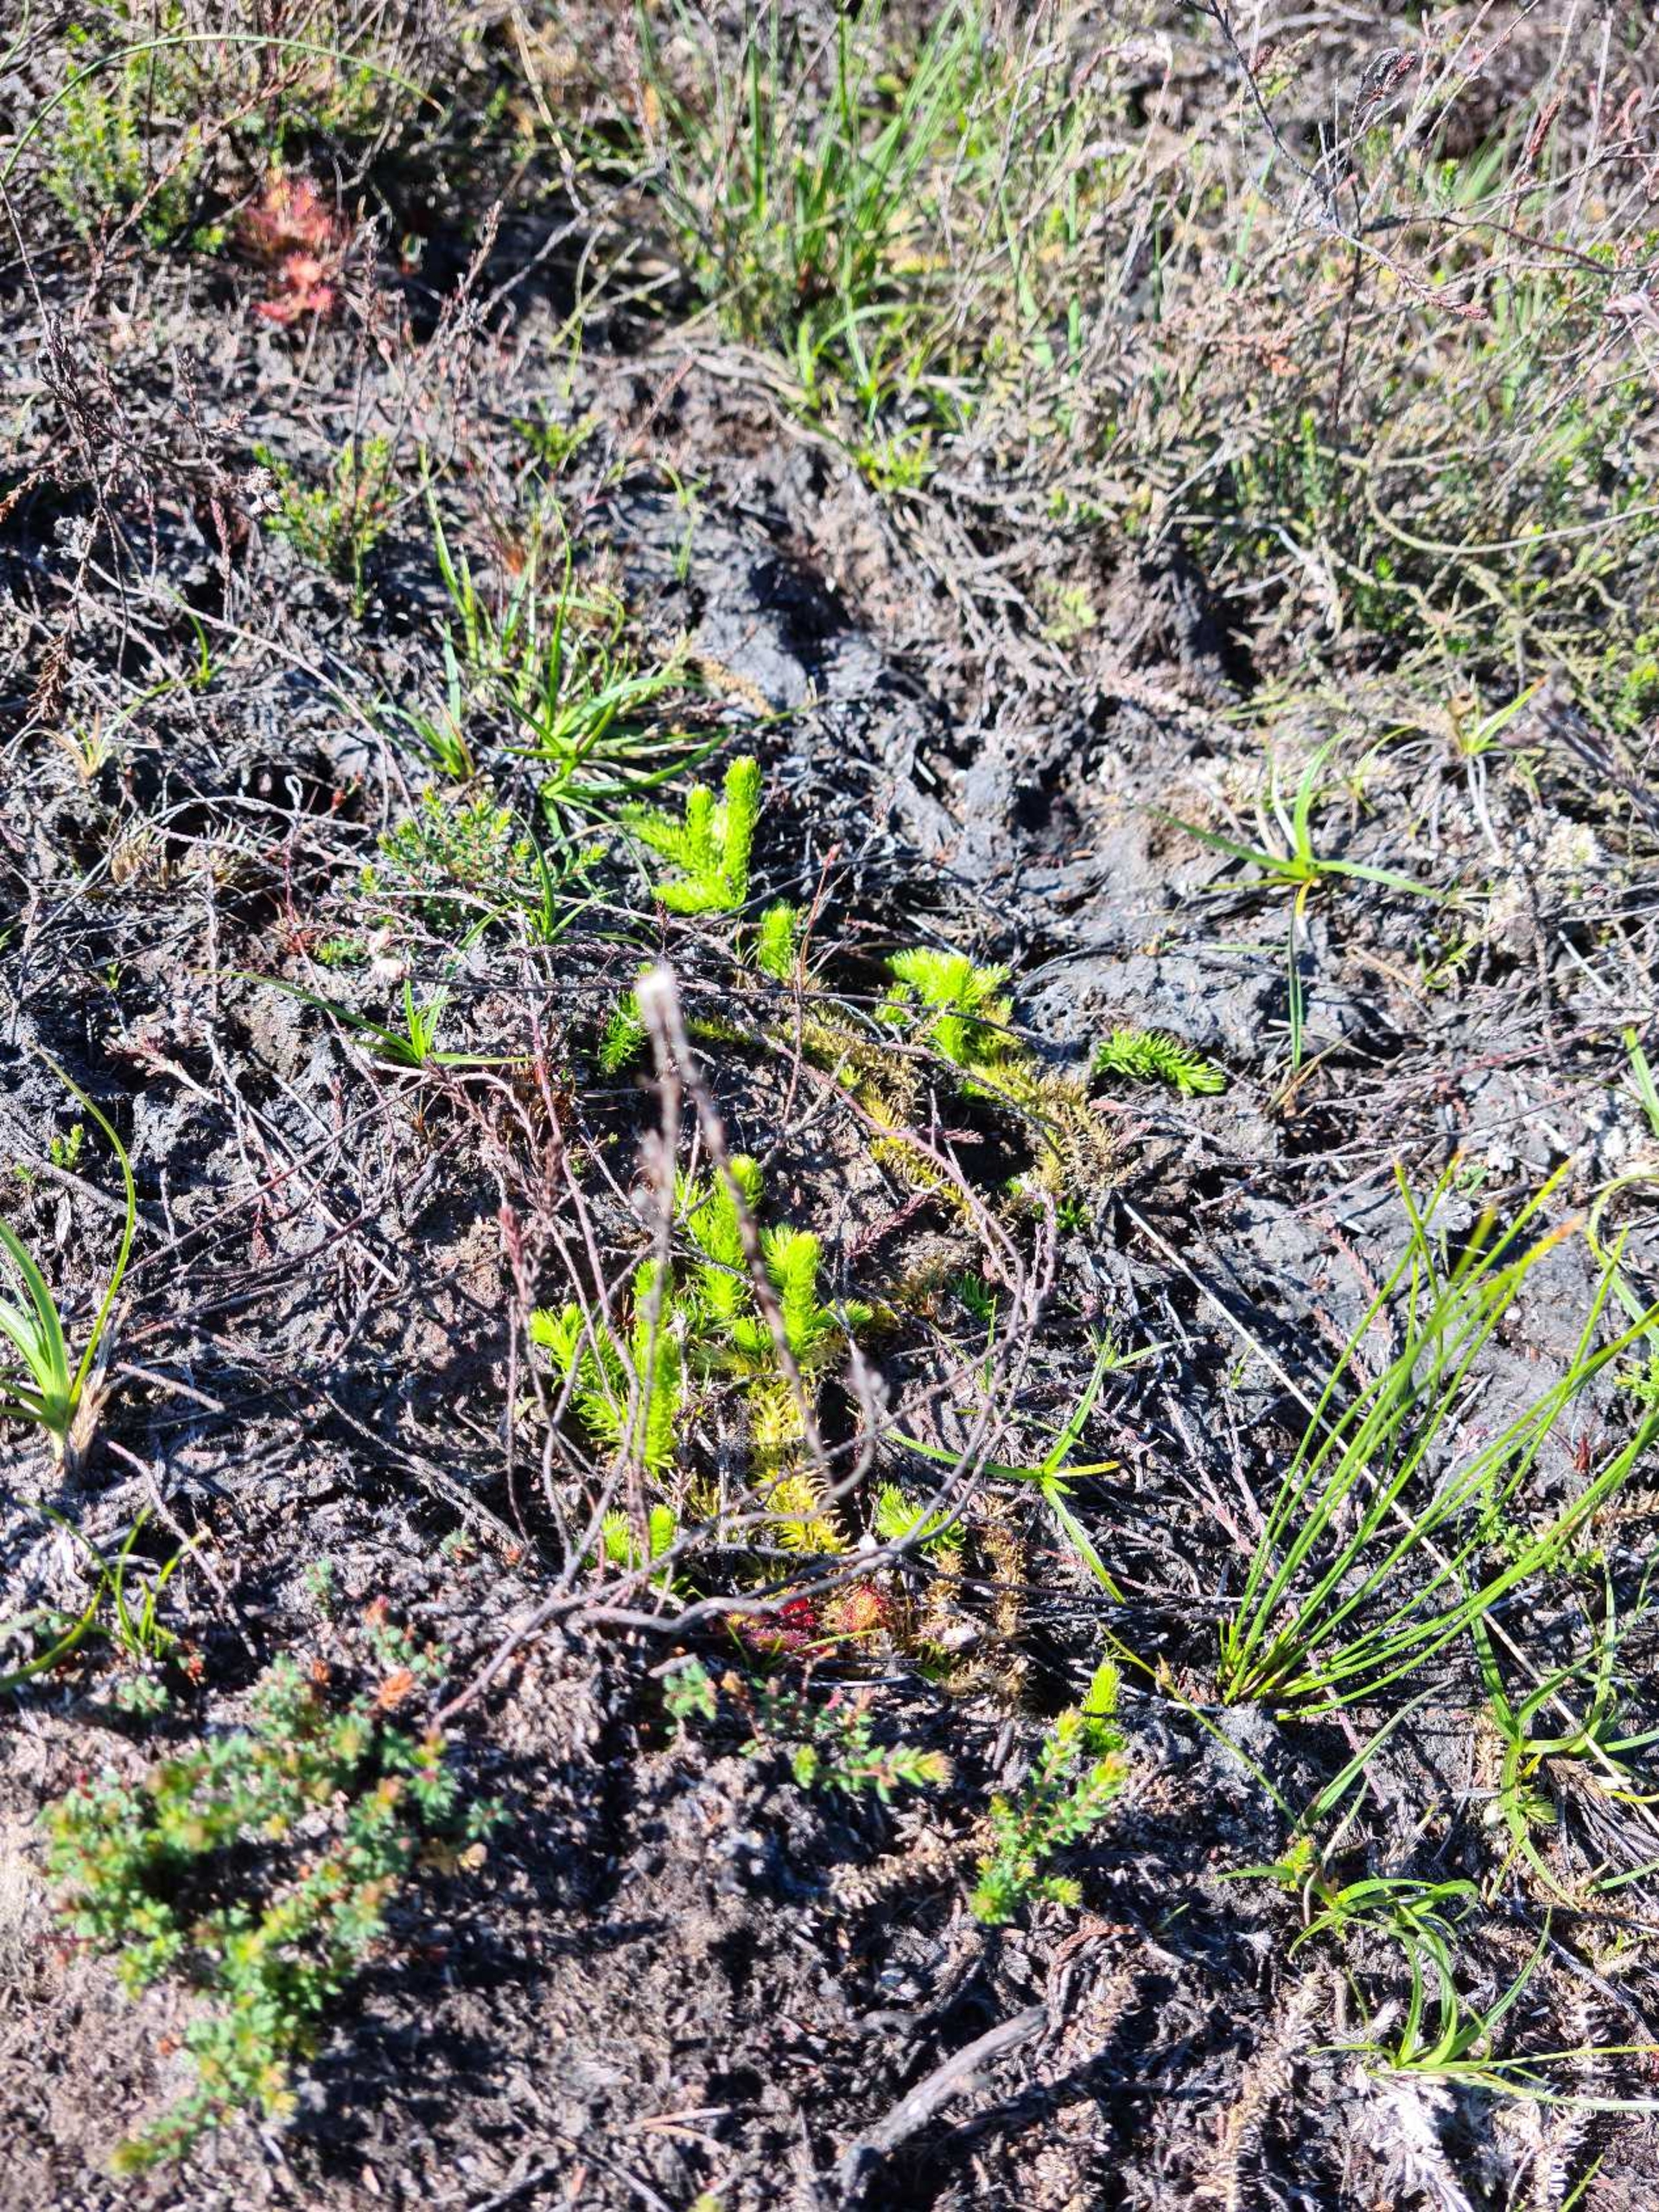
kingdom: Plantae
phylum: Tracheophyta
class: Lycopodiopsida
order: Lycopodiales
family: Lycopodiaceae
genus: Lycopodiella
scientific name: Lycopodiella inundata
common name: Liden ulvefod
